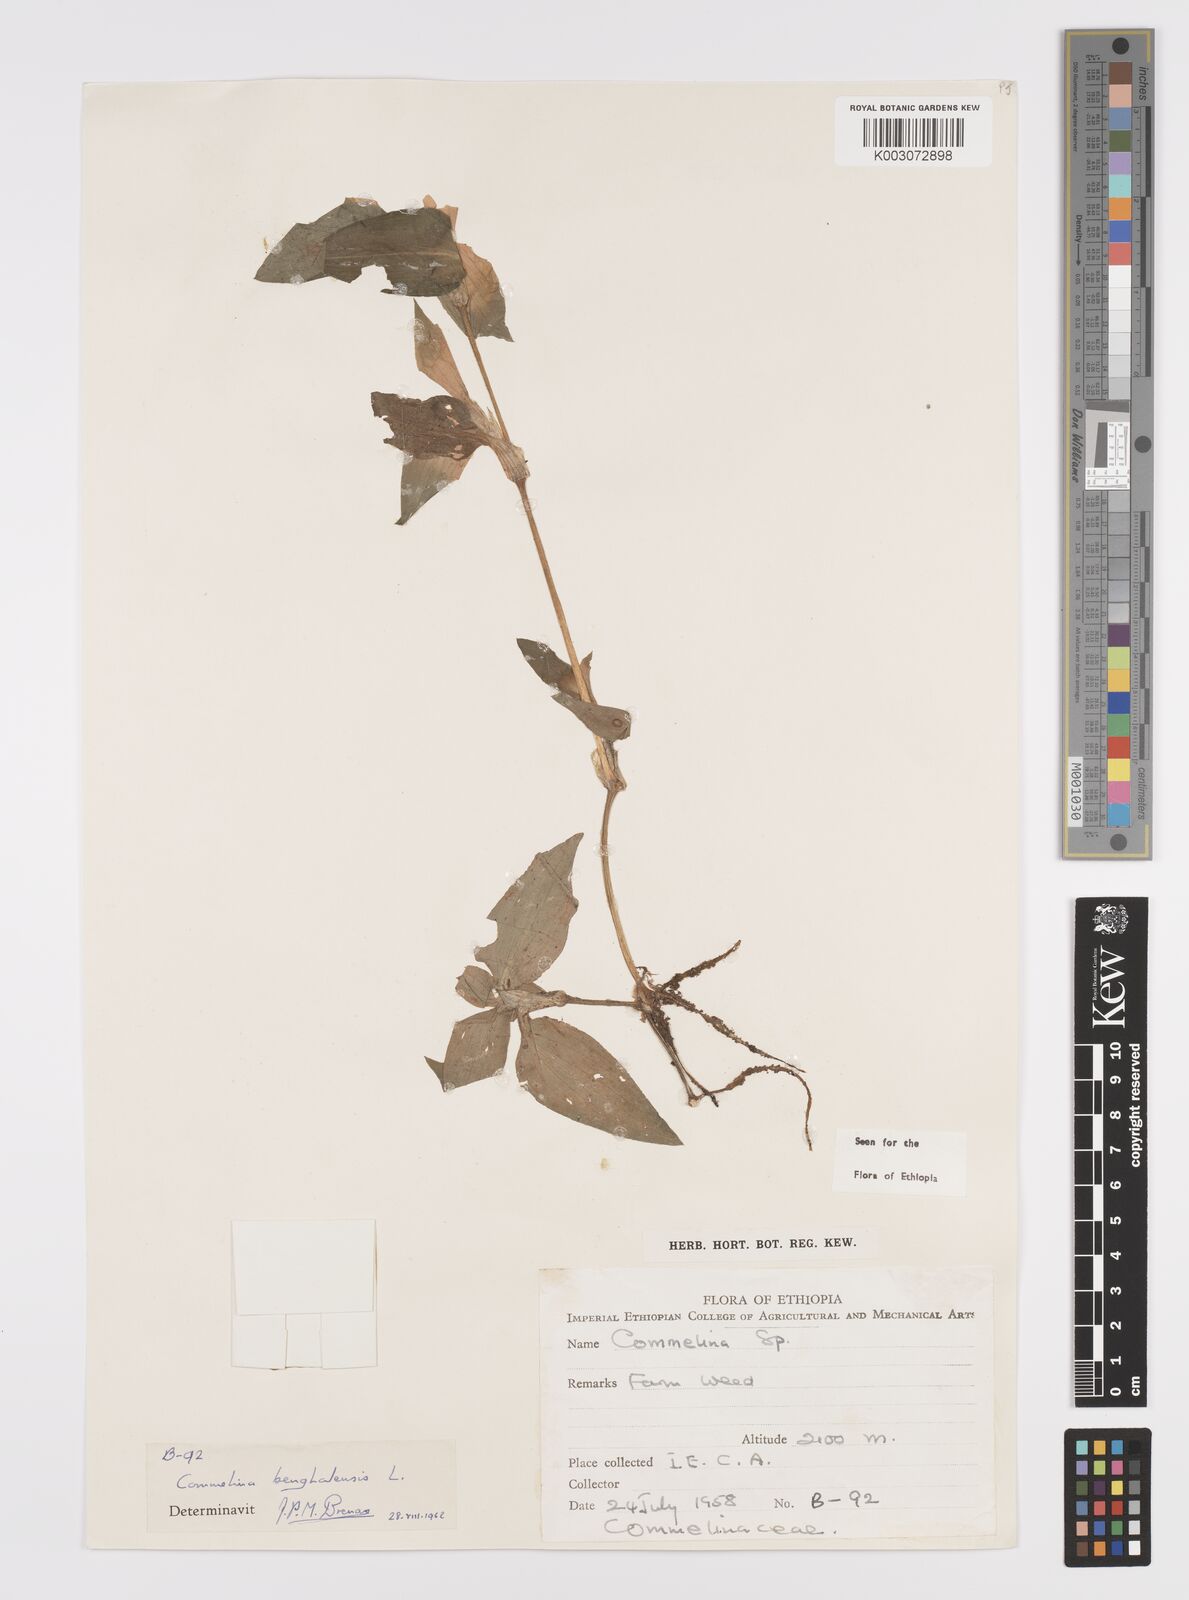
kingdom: Plantae
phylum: Tracheophyta
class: Liliopsida
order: Commelinales
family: Commelinaceae
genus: Commelina
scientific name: Commelina benghalensis
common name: Jio
